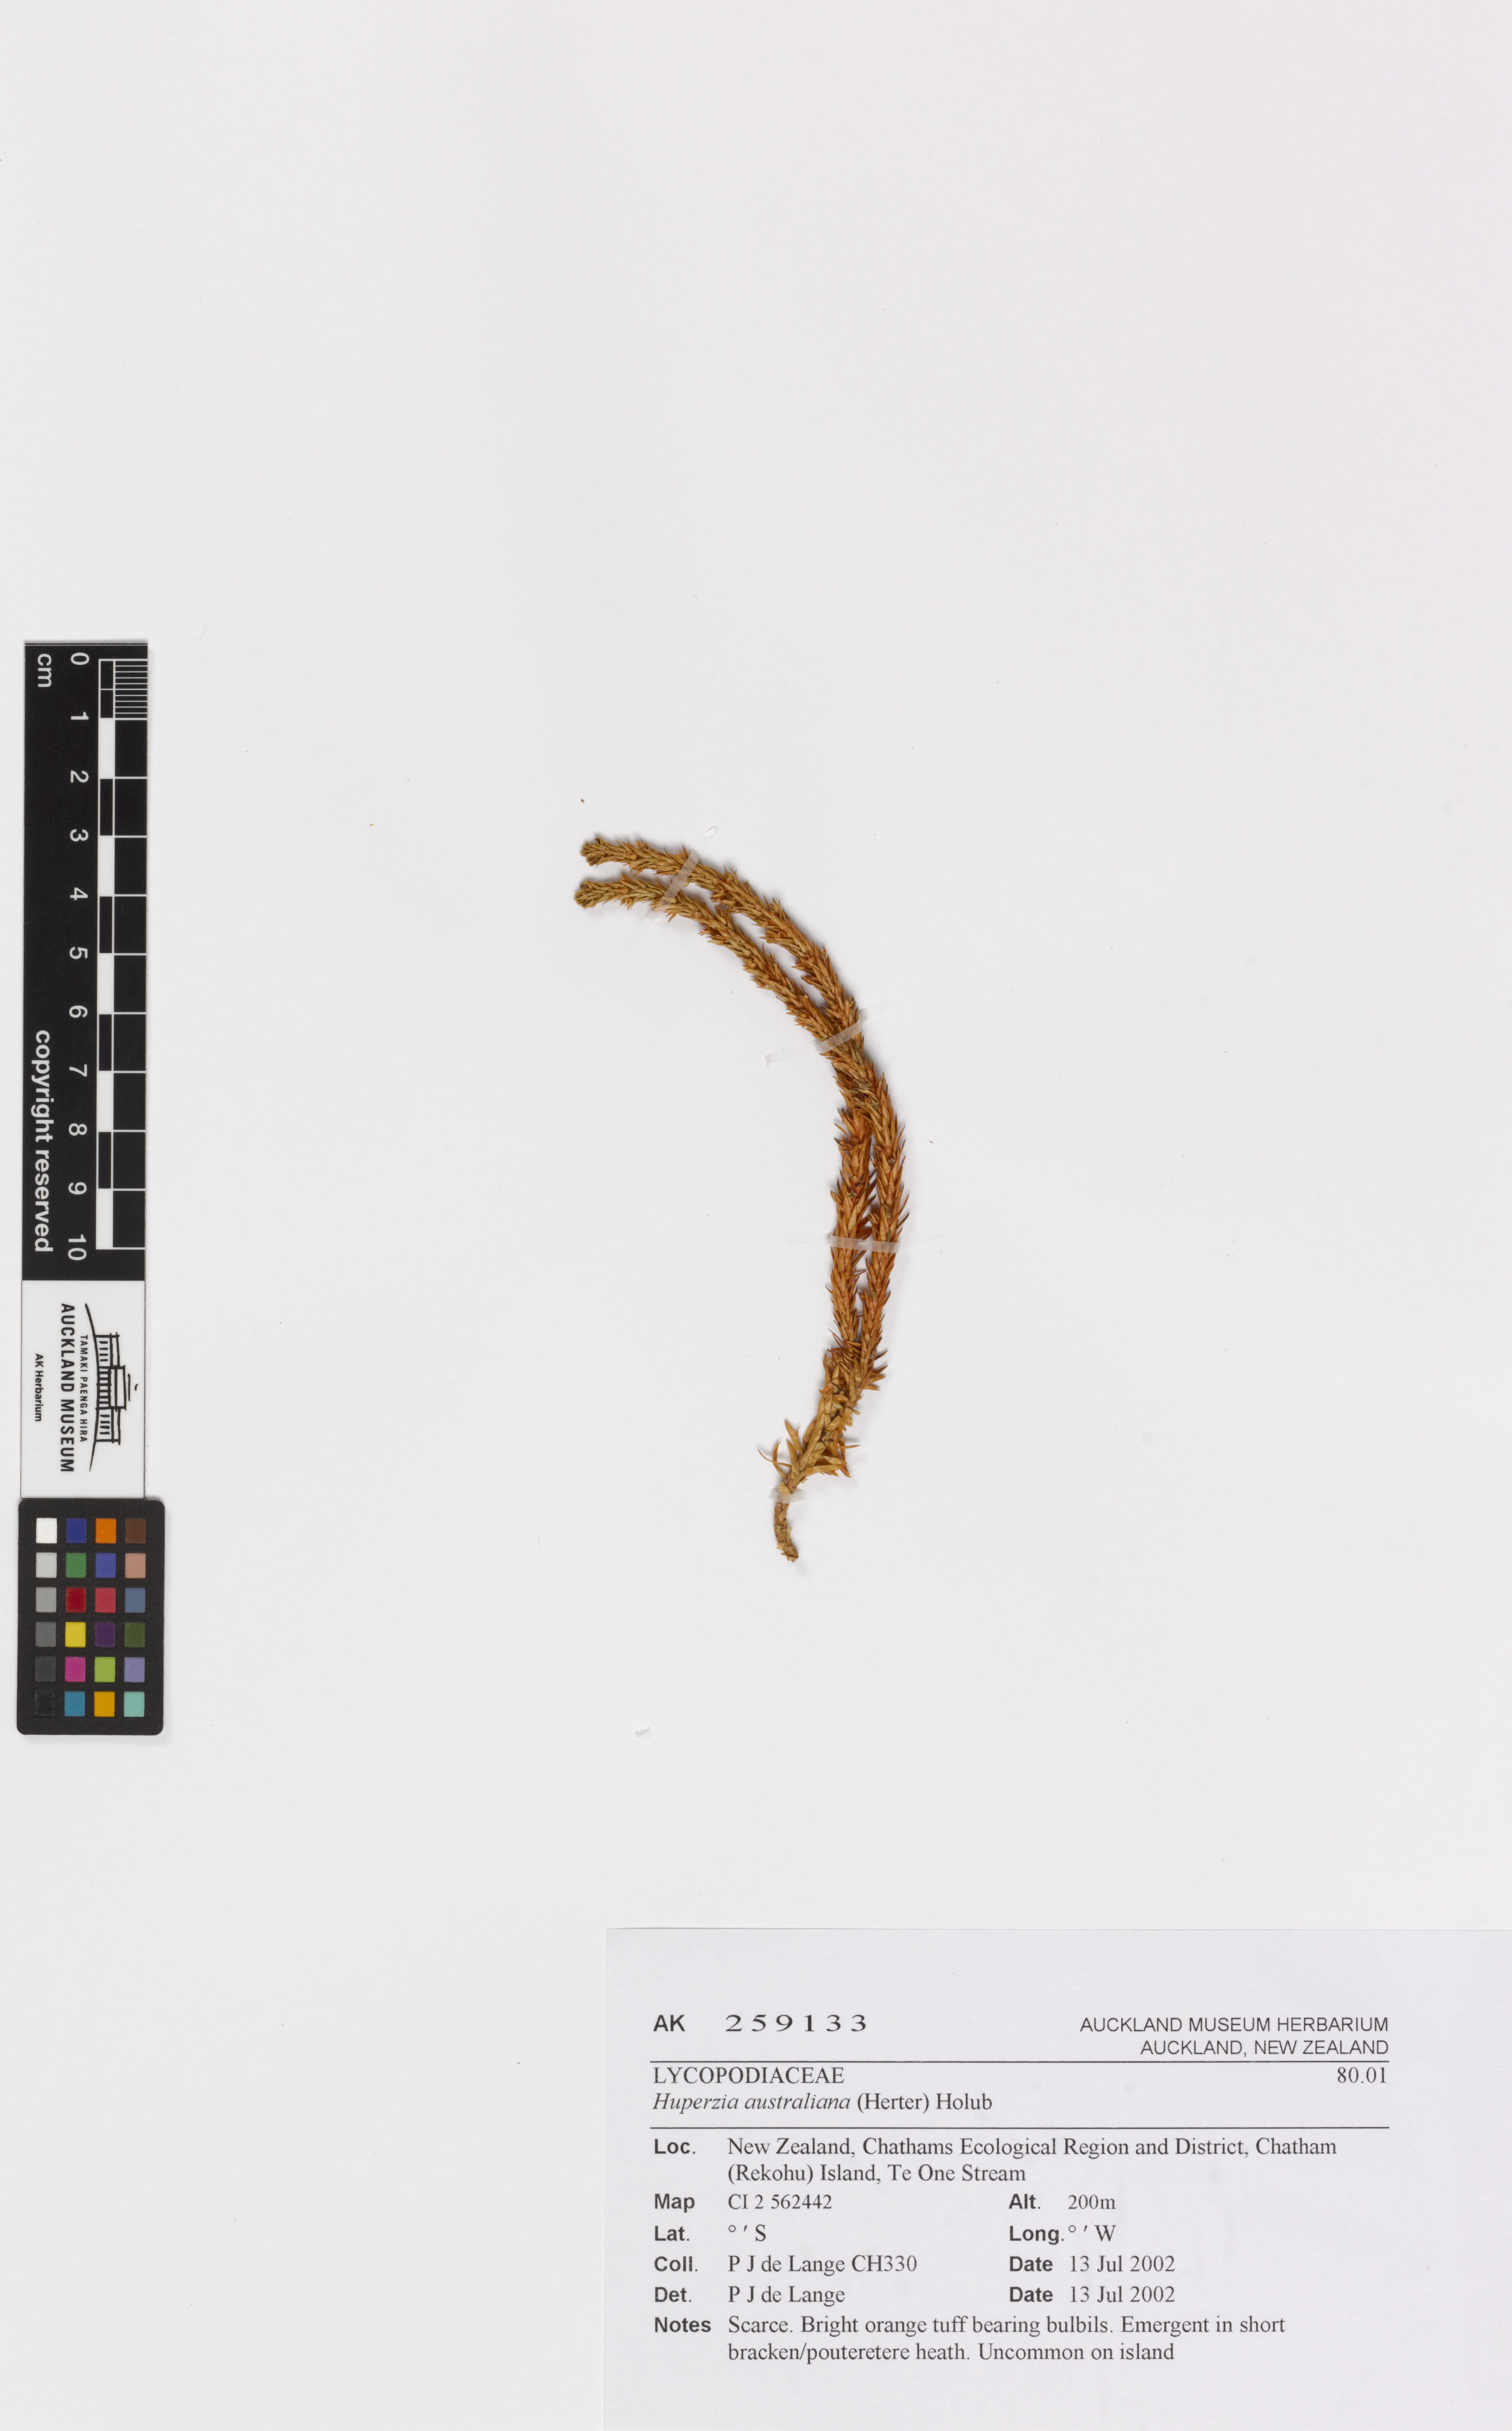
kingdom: Plantae
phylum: Tracheophyta
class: Lycopodiopsida
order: Lycopodiales
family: Lycopodiaceae
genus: Huperzia
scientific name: Huperzia australiana
